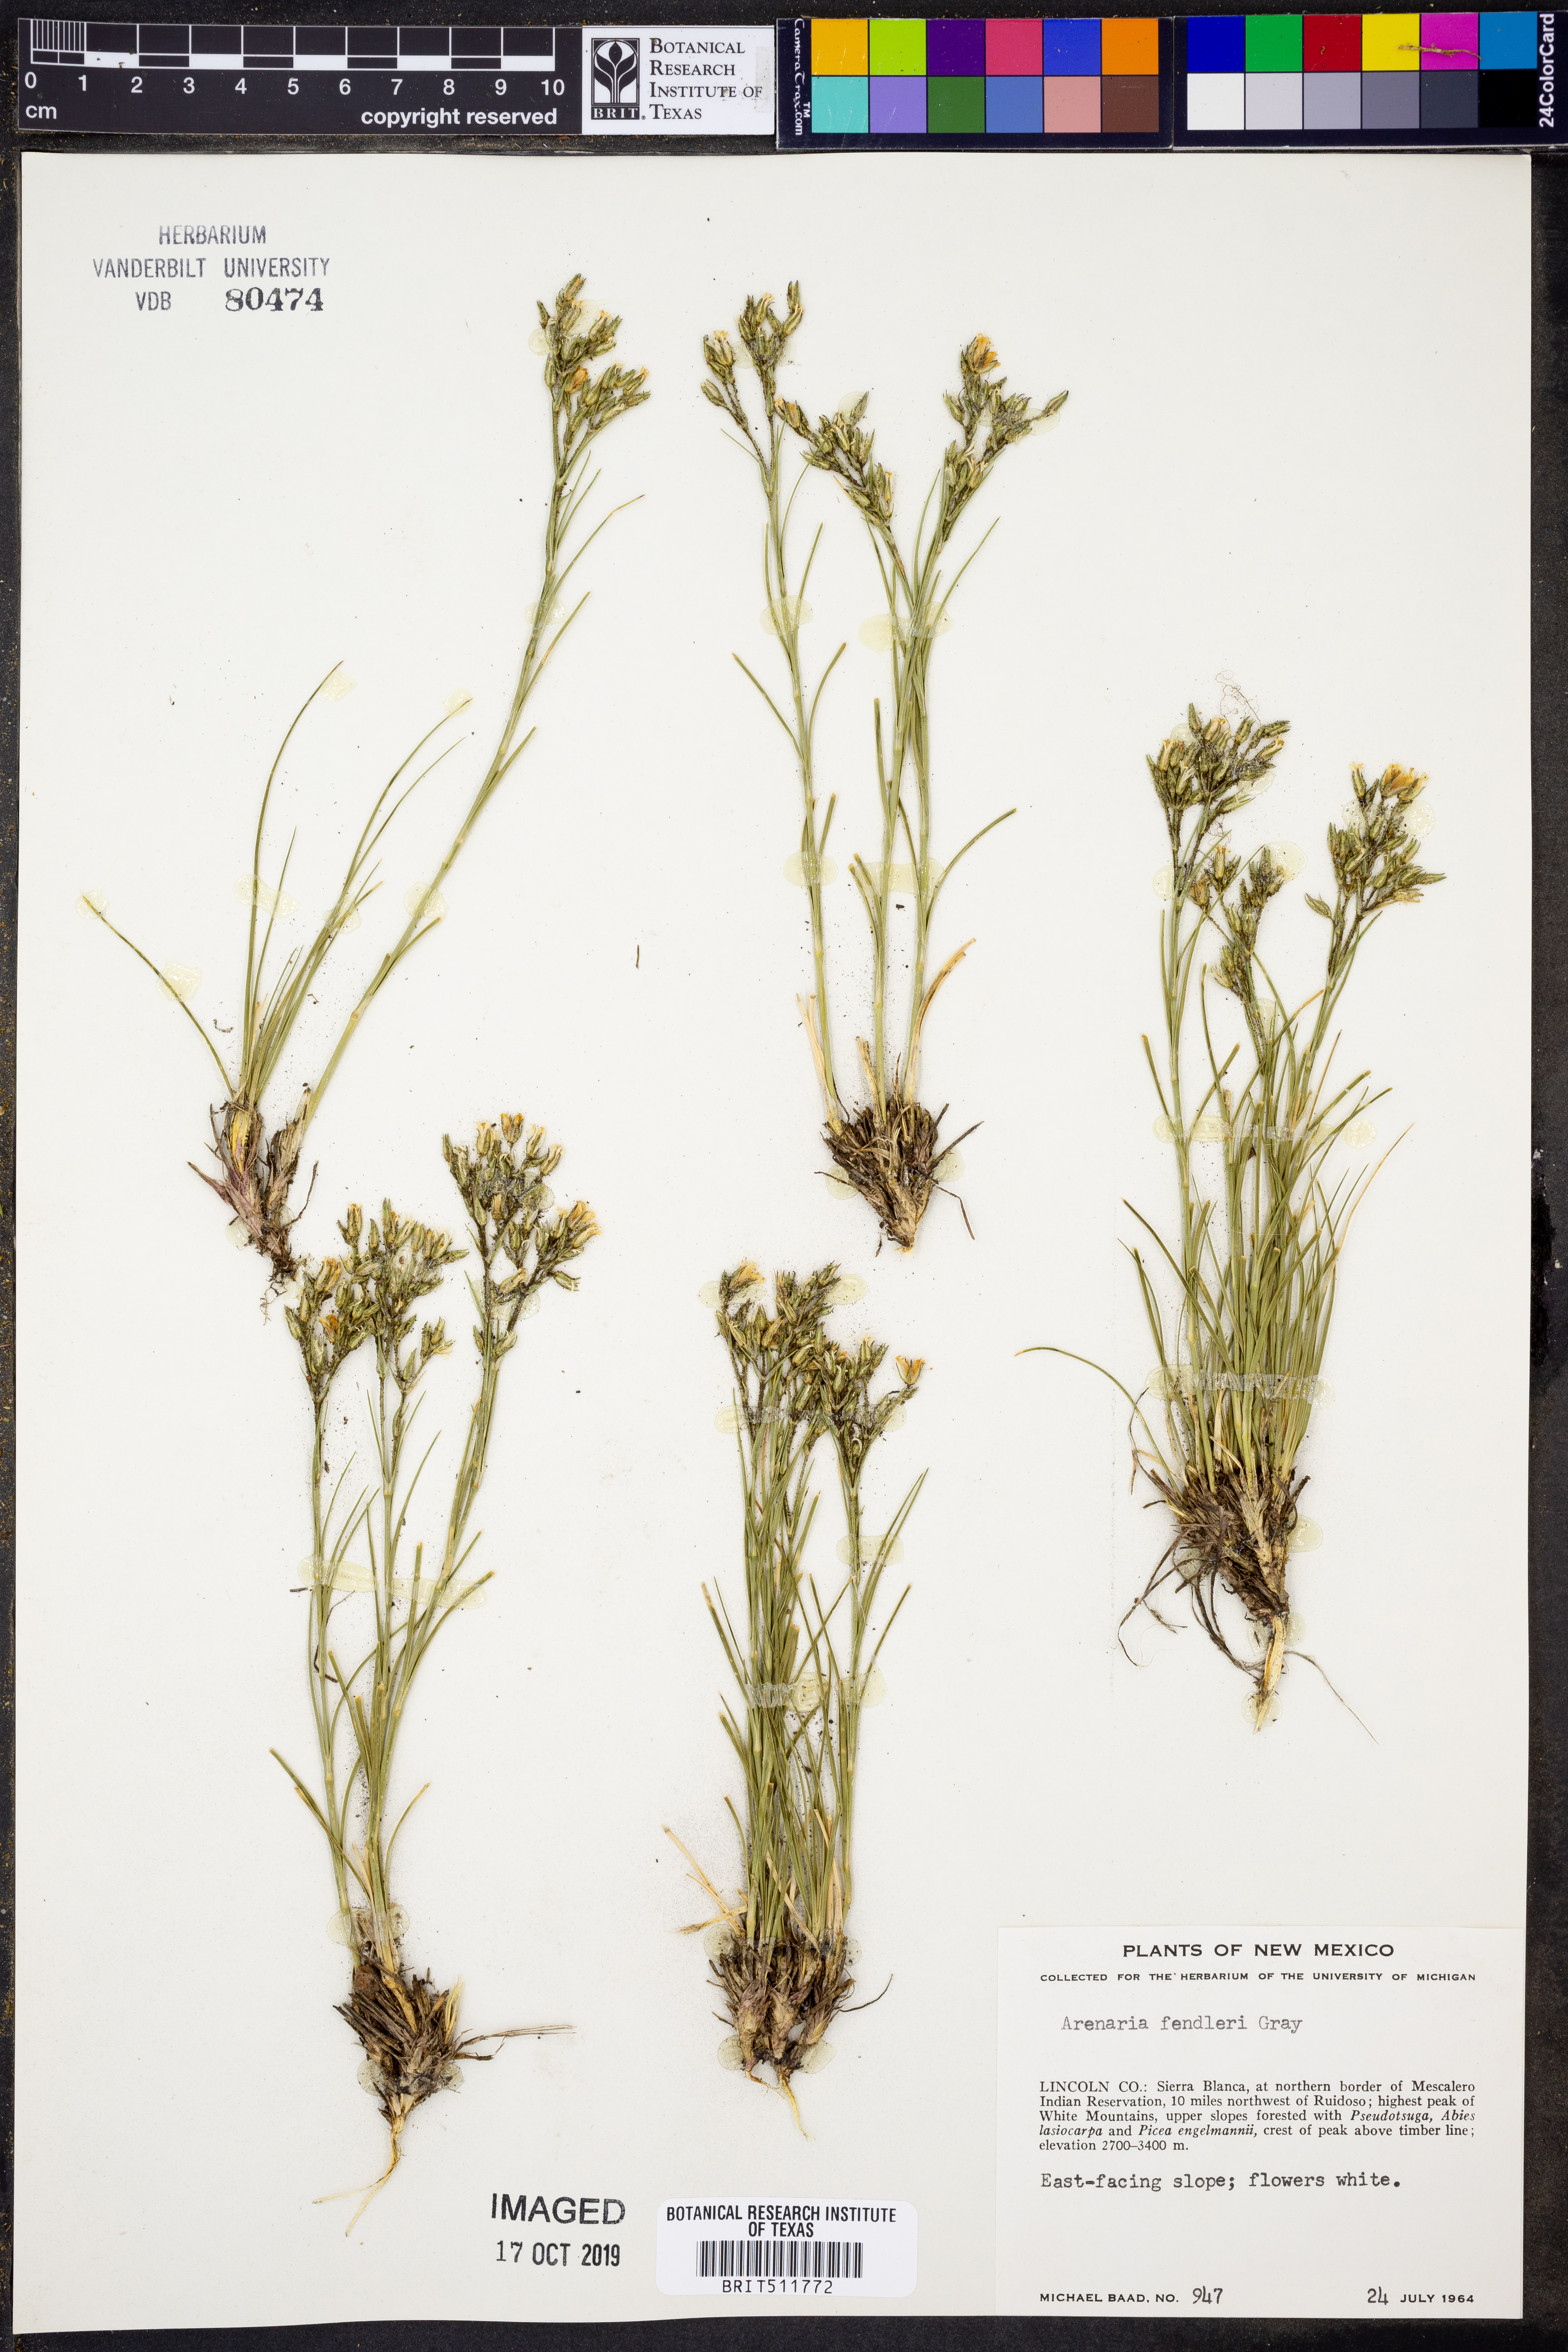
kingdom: Plantae
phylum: Tracheophyta
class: Magnoliopsida
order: Caryophyllales
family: Caryophyllaceae
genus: Eremogone
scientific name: Eremogone fendleri
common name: Fendler's sandwort
